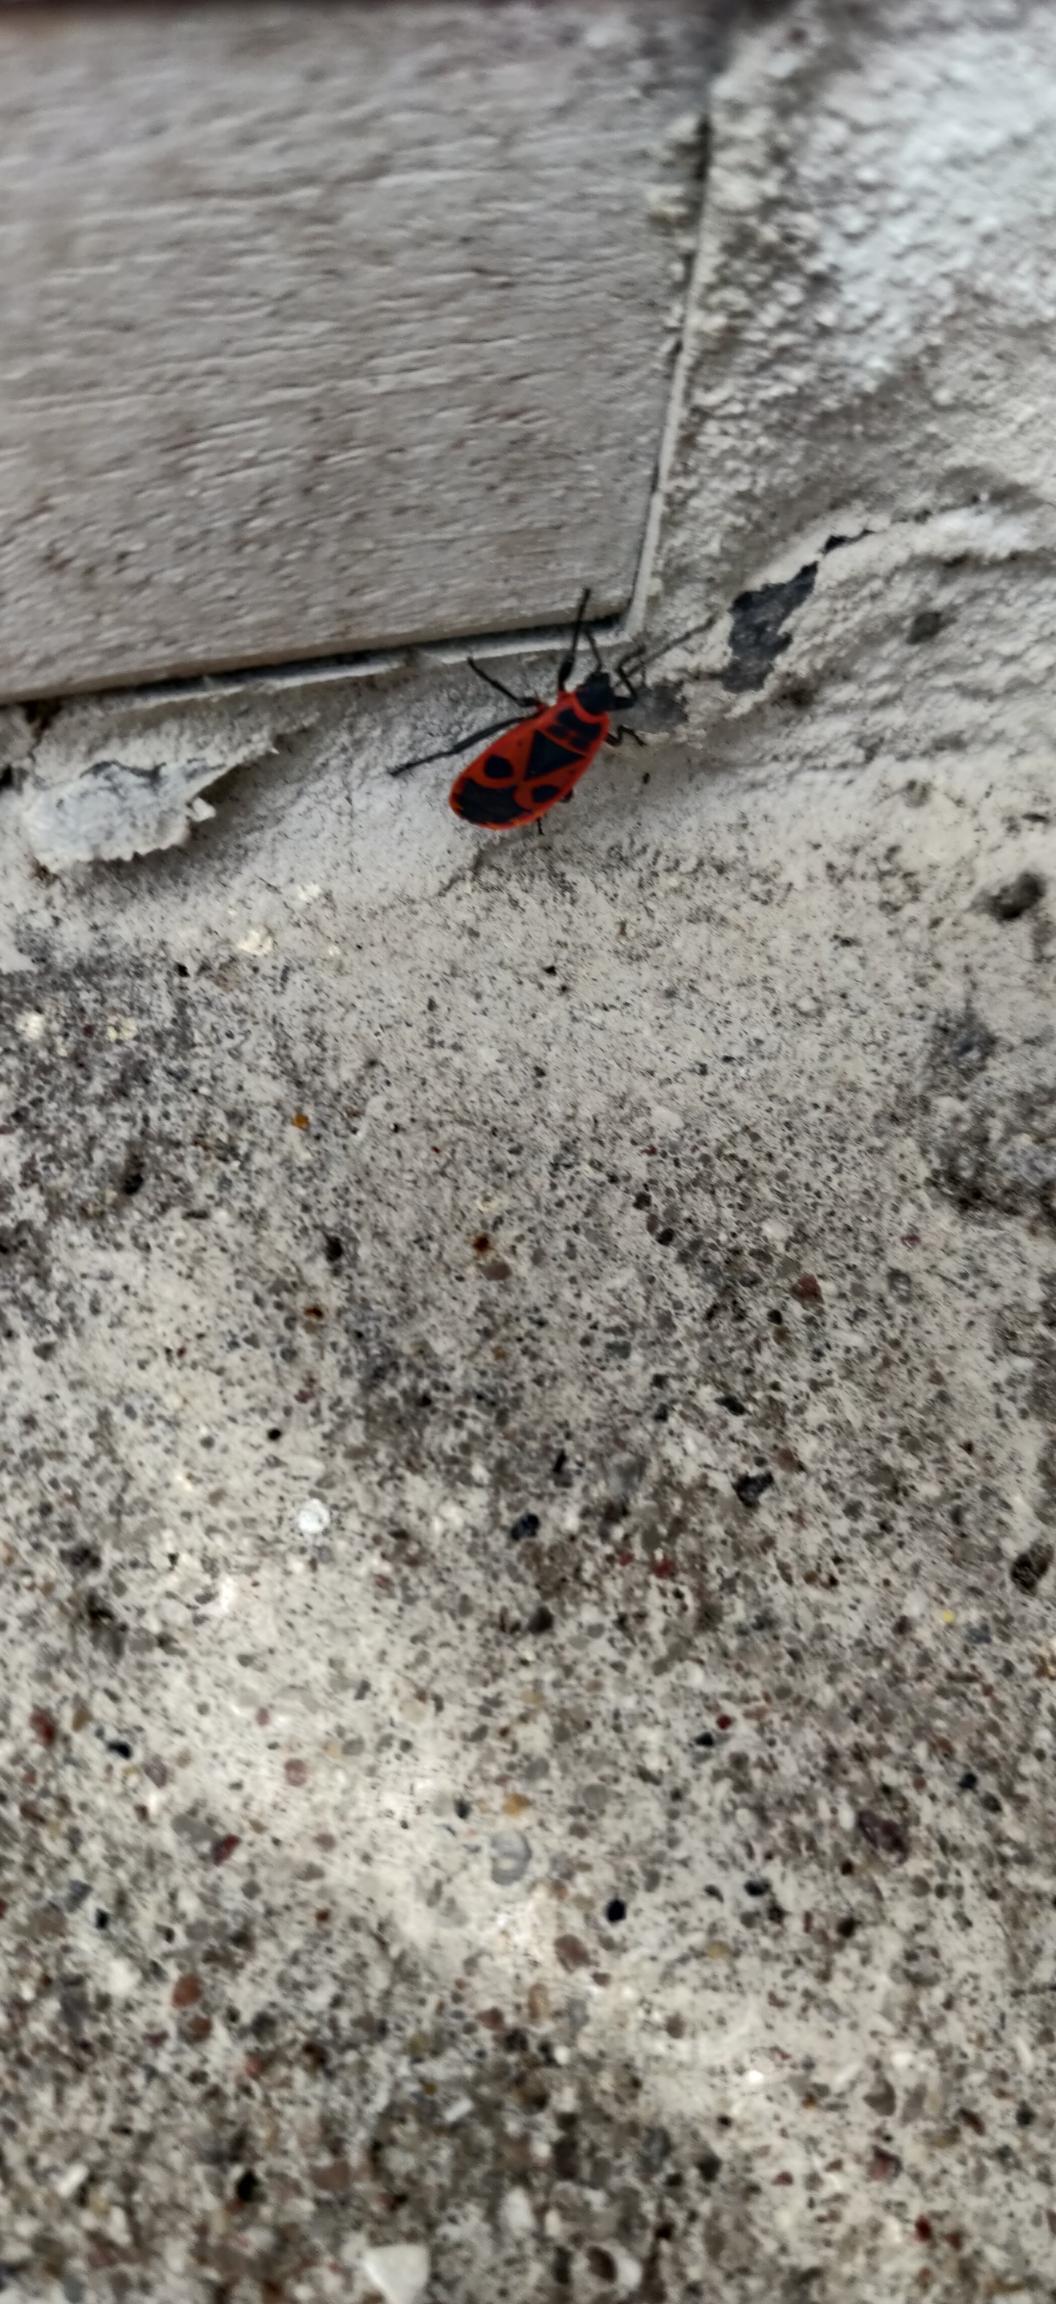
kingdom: Animalia
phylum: Arthropoda
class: Insecta
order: Hemiptera
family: Pyrrhocoridae
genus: Pyrrhocoris
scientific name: Pyrrhocoris apterus
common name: Ildtæge
